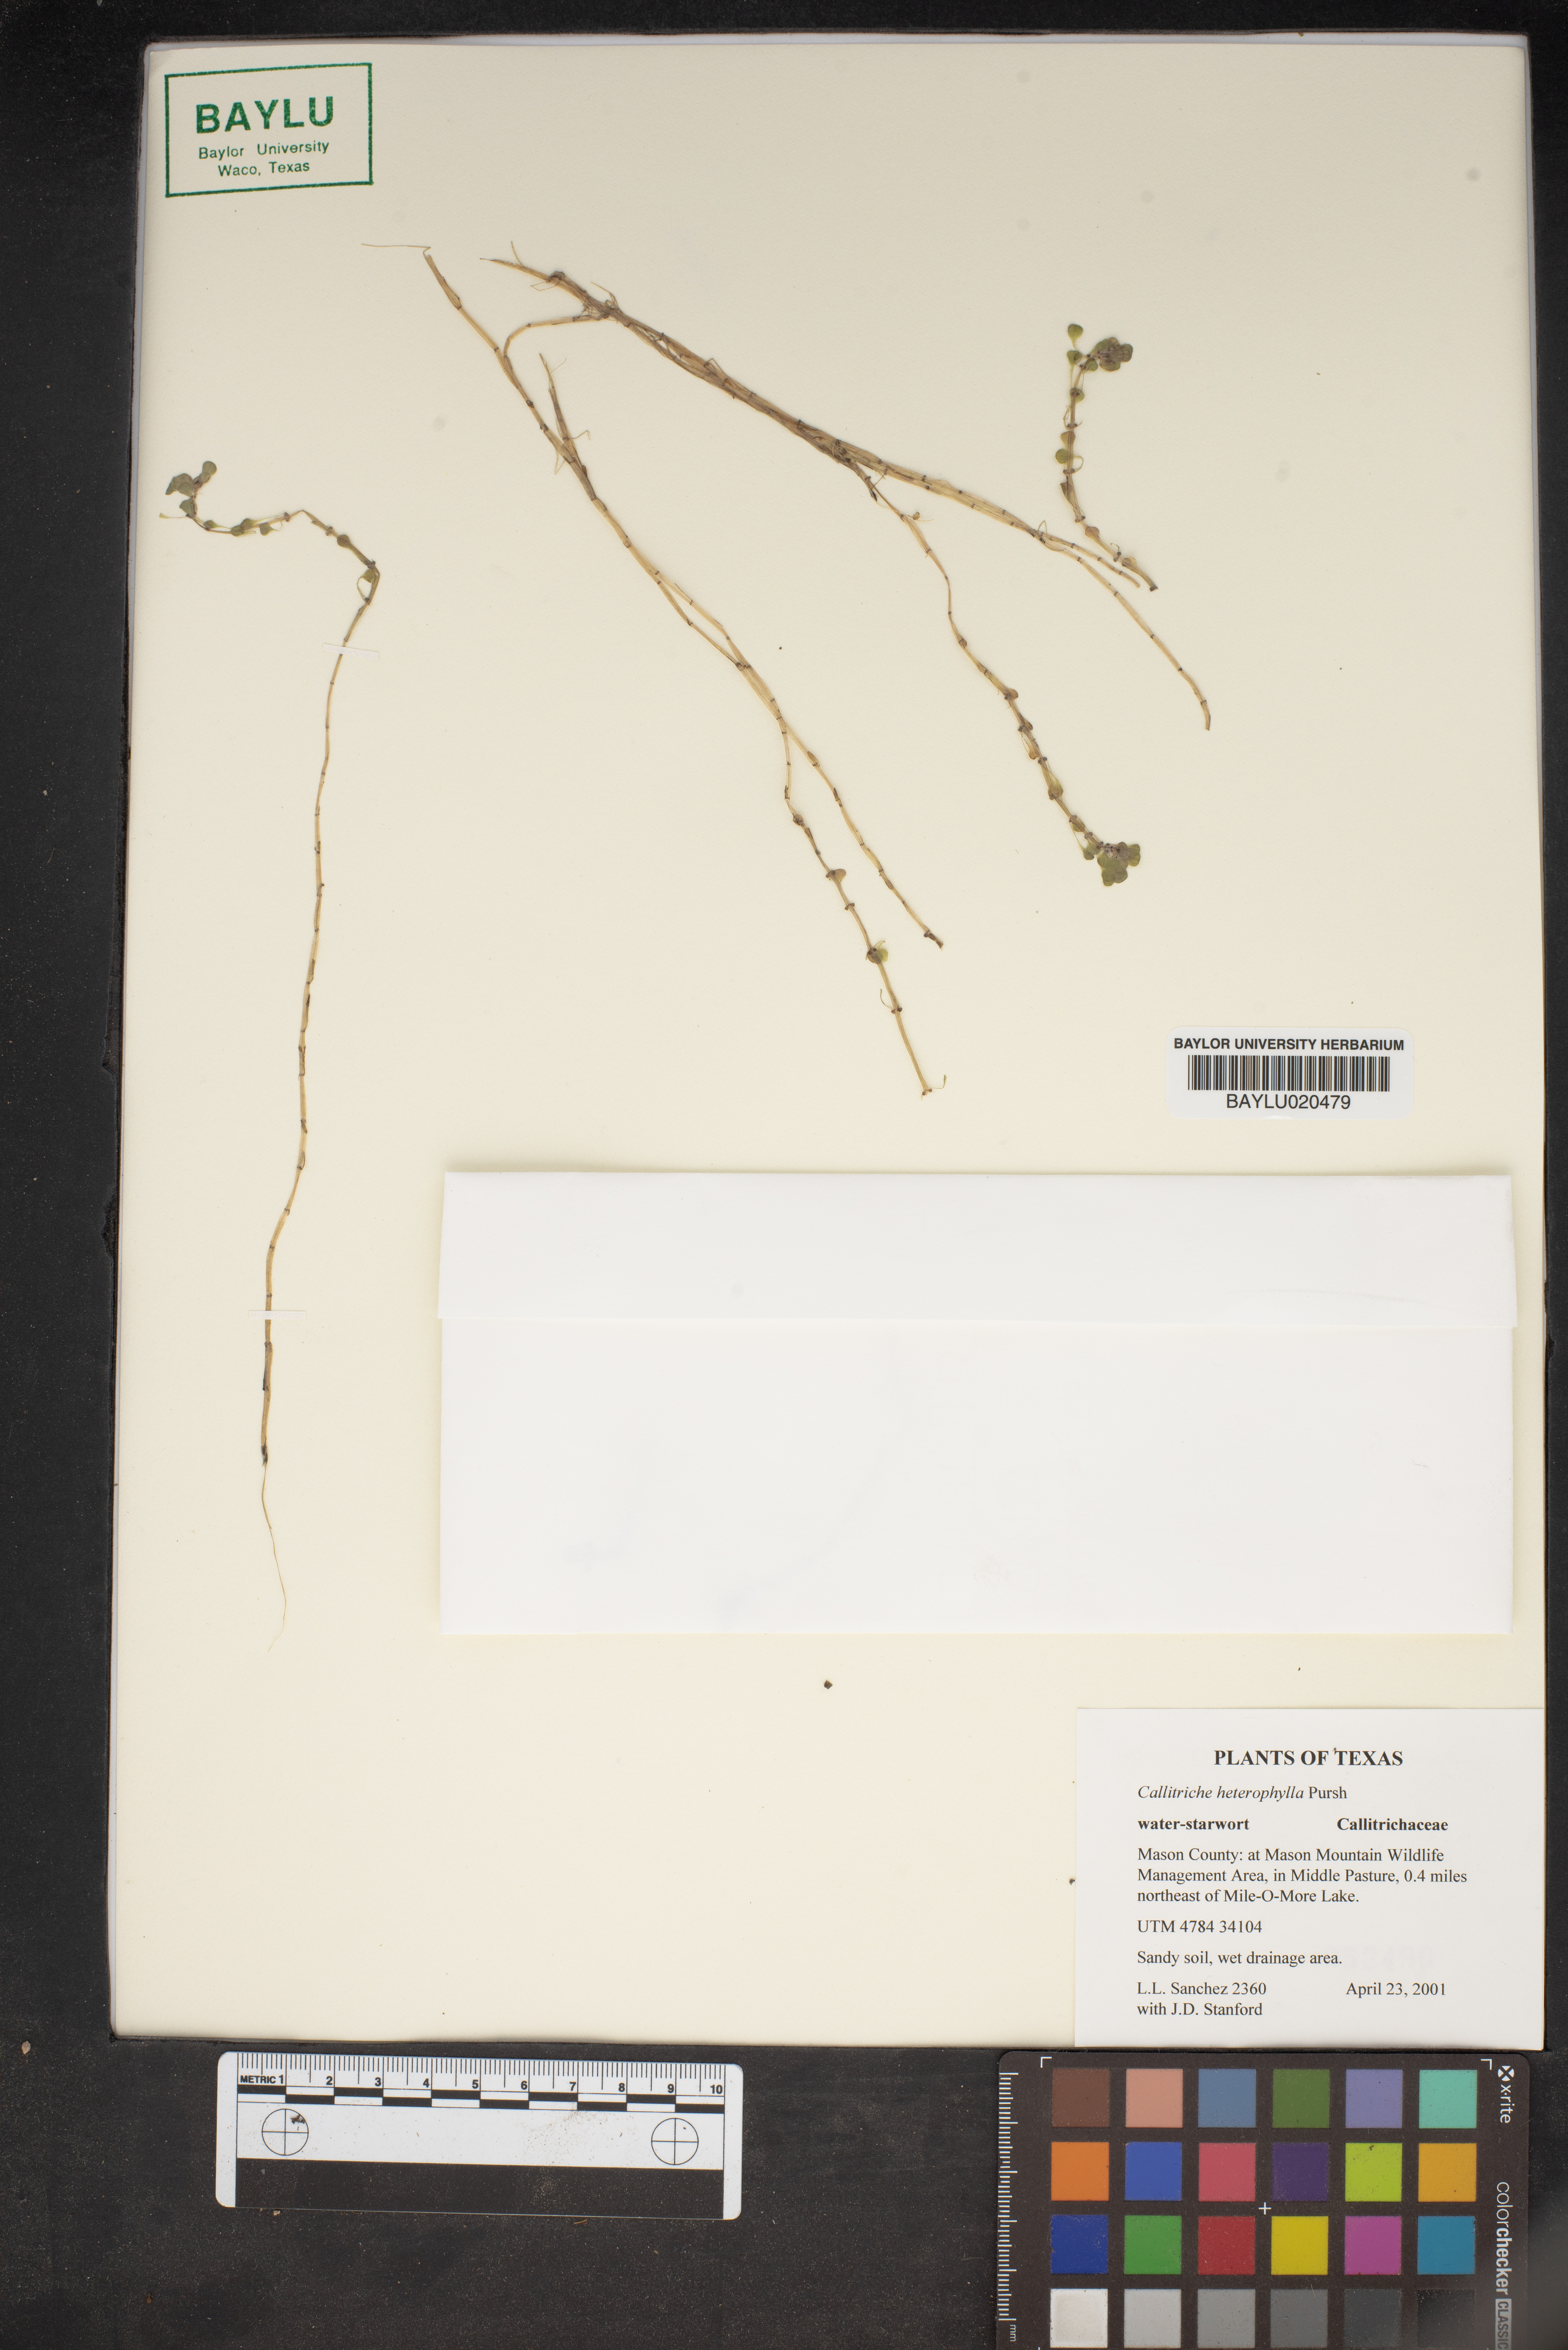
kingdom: Plantae
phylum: Tracheophyta
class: Magnoliopsida
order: Lamiales
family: Plantaginaceae
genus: Callitriche
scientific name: Callitriche heterophylla
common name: Two-headed water-starwort
